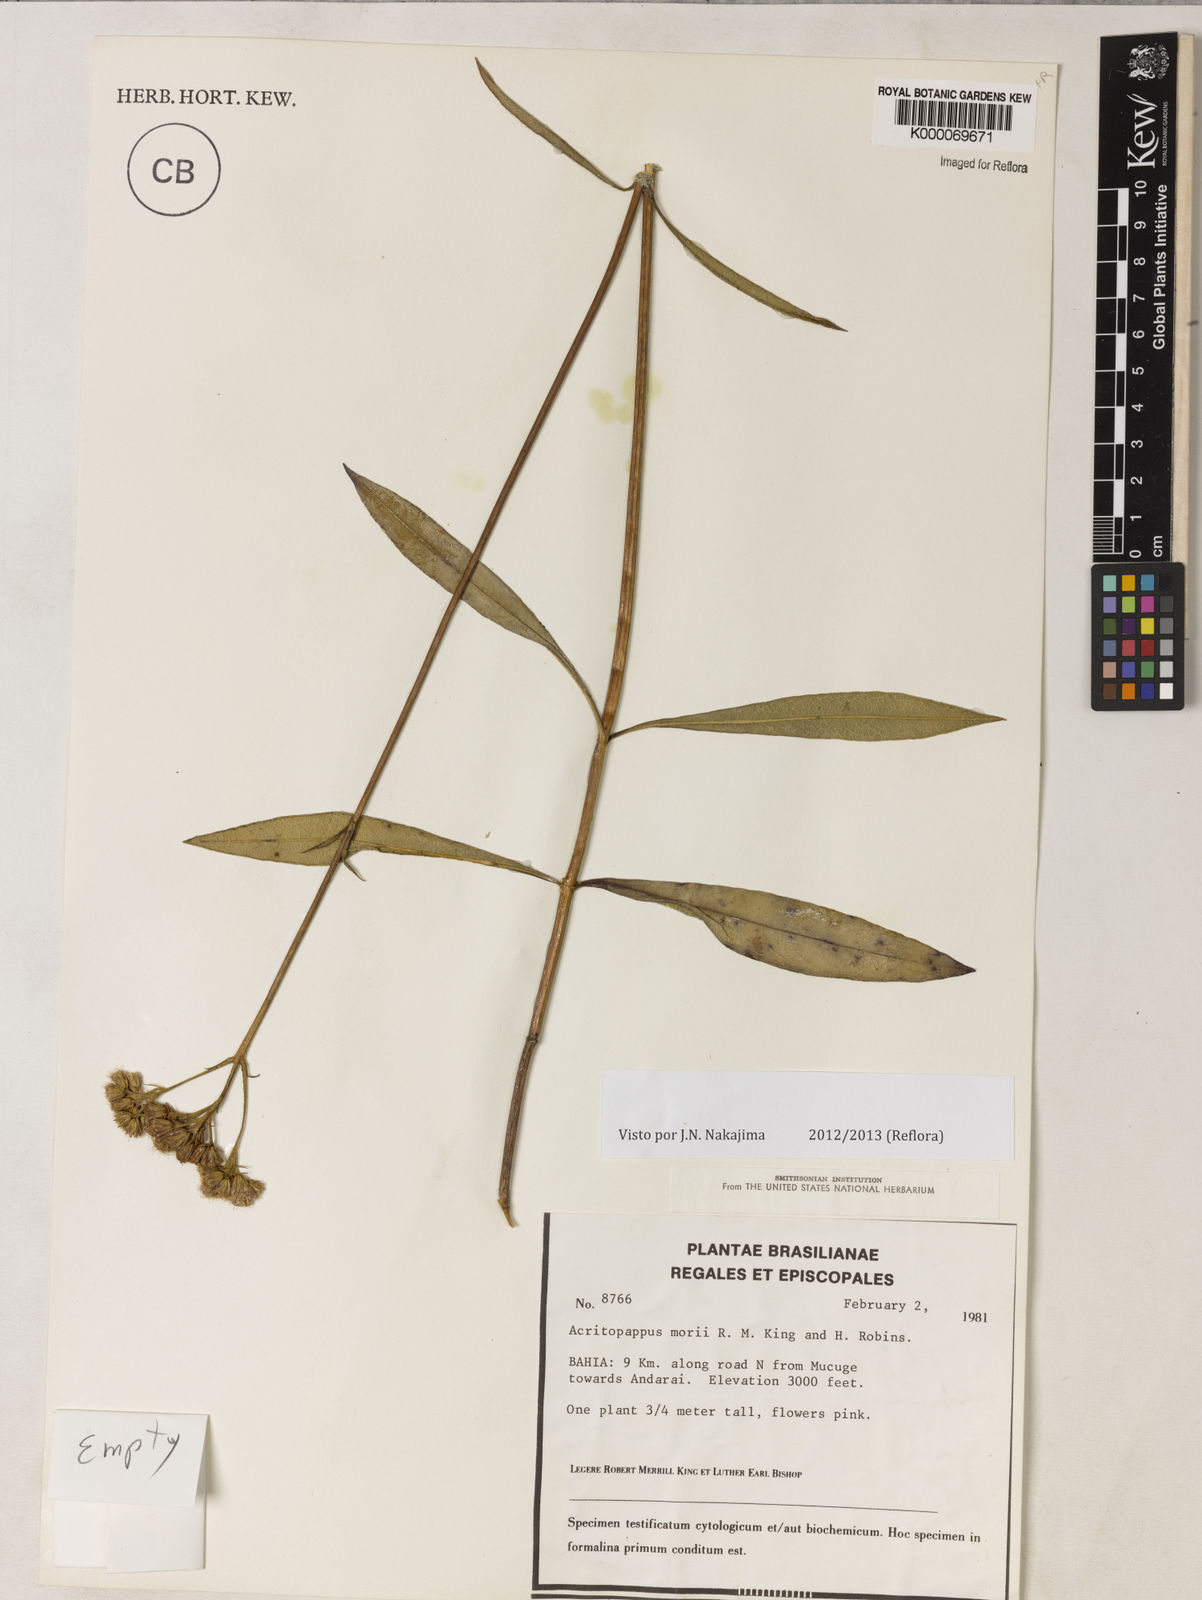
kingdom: Plantae
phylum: Tracheophyta
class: Magnoliopsida
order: Asterales
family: Asteraceae
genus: Acritopappus
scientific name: Acritopappus morii
